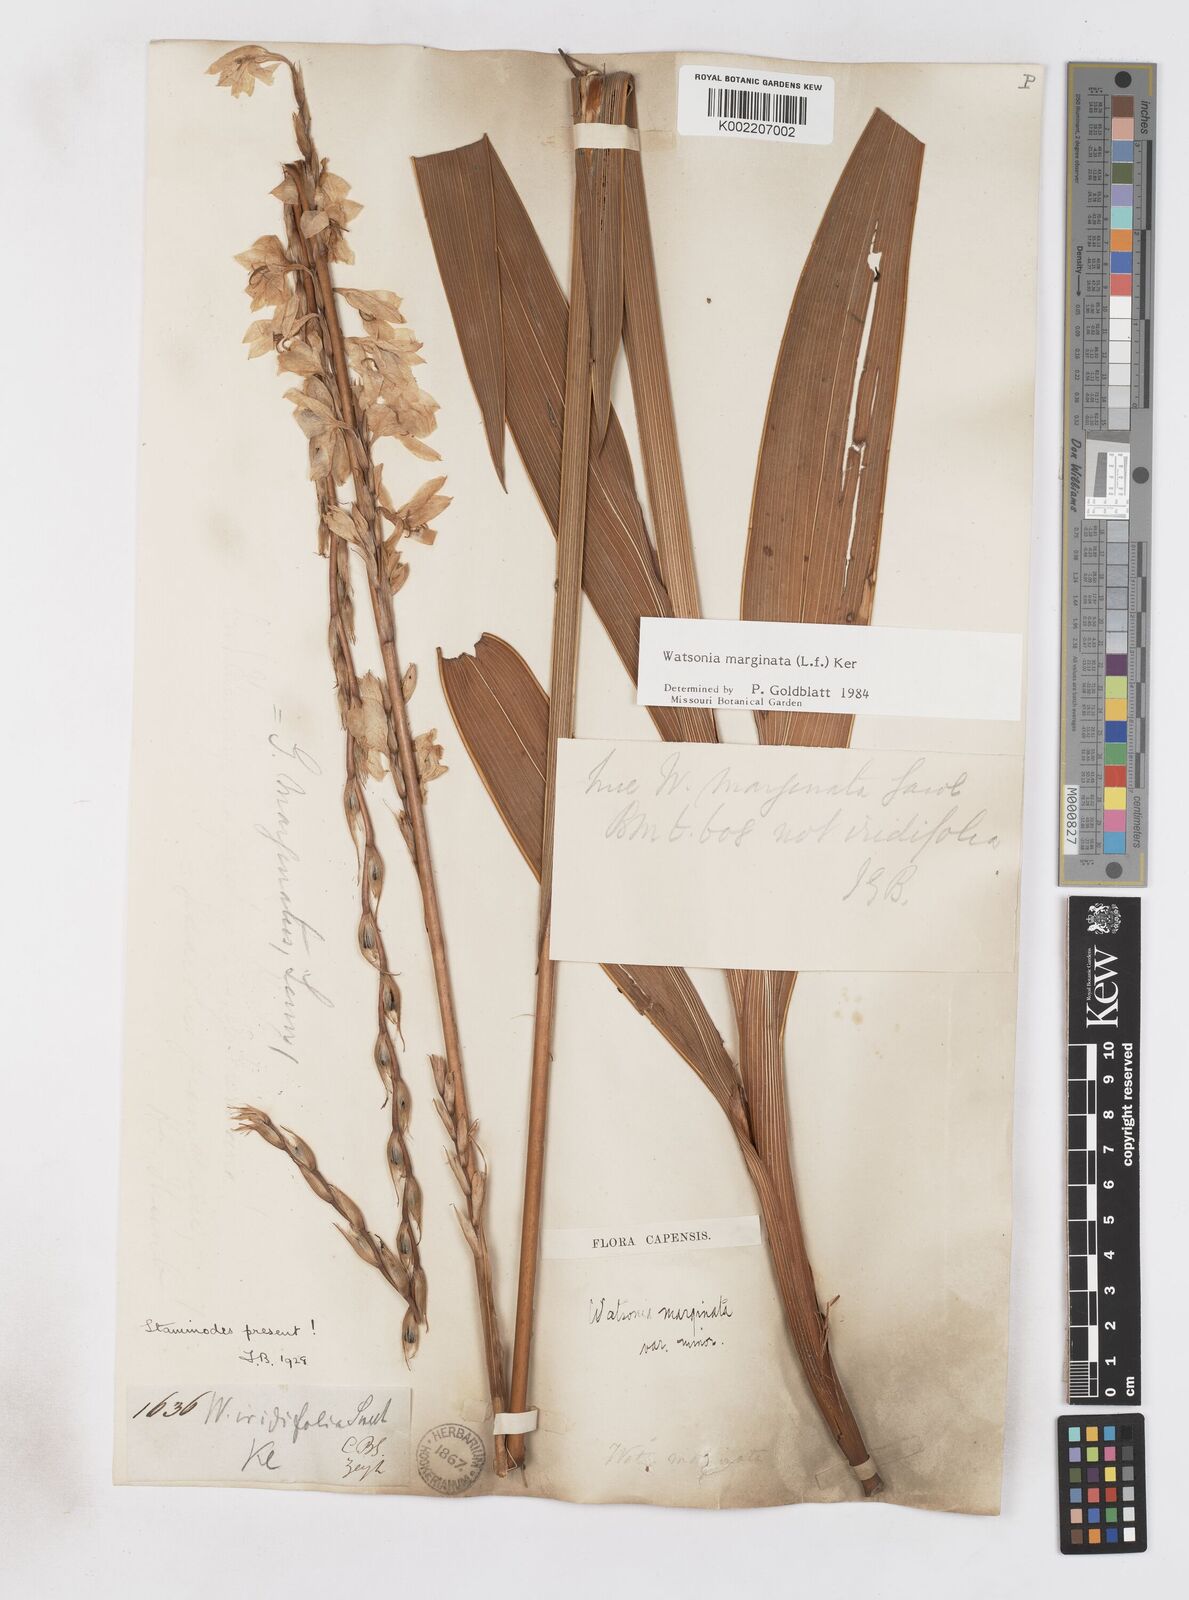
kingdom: Plantae
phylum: Tracheophyta
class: Liliopsida
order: Asparagales
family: Iridaceae
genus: Watsonia
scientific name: Watsonia marginata
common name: Fragrant bugle-lily
